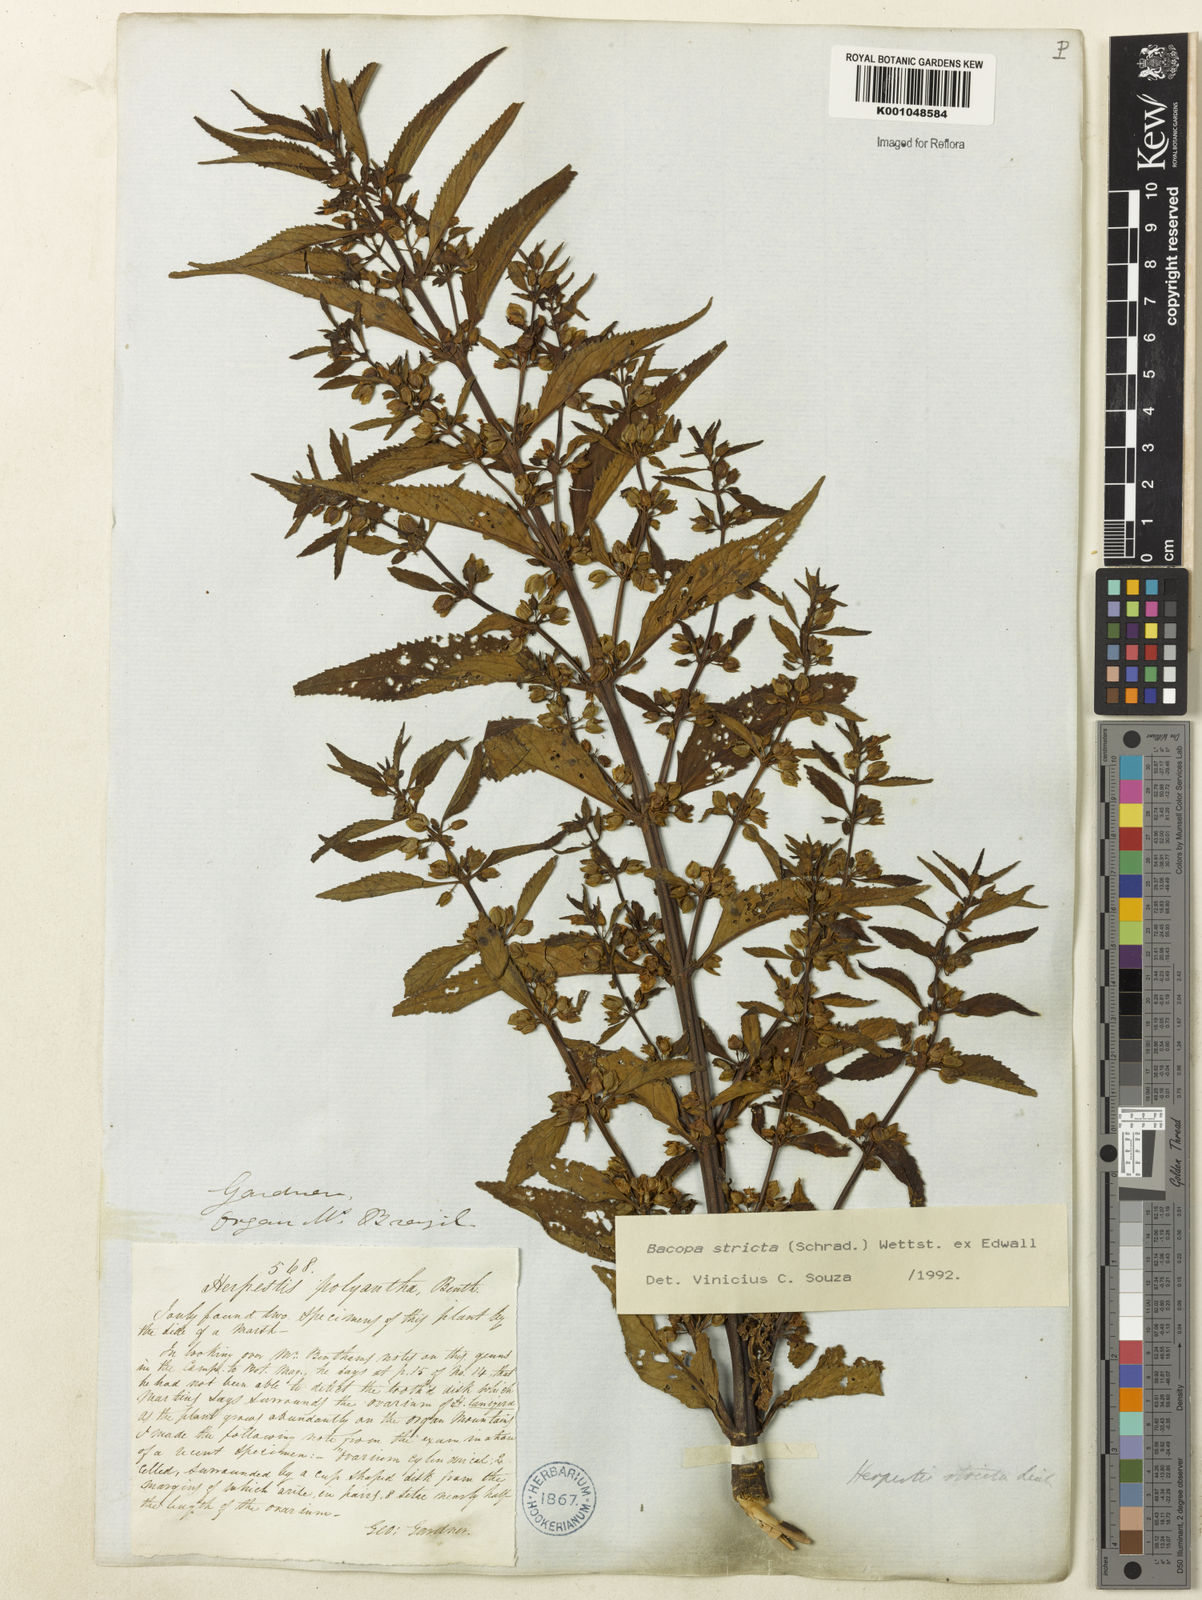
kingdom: Plantae
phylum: Tracheophyta
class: Magnoliopsida
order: Lamiales
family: Plantaginaceae
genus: Bacopa
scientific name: Bacopa stricta
